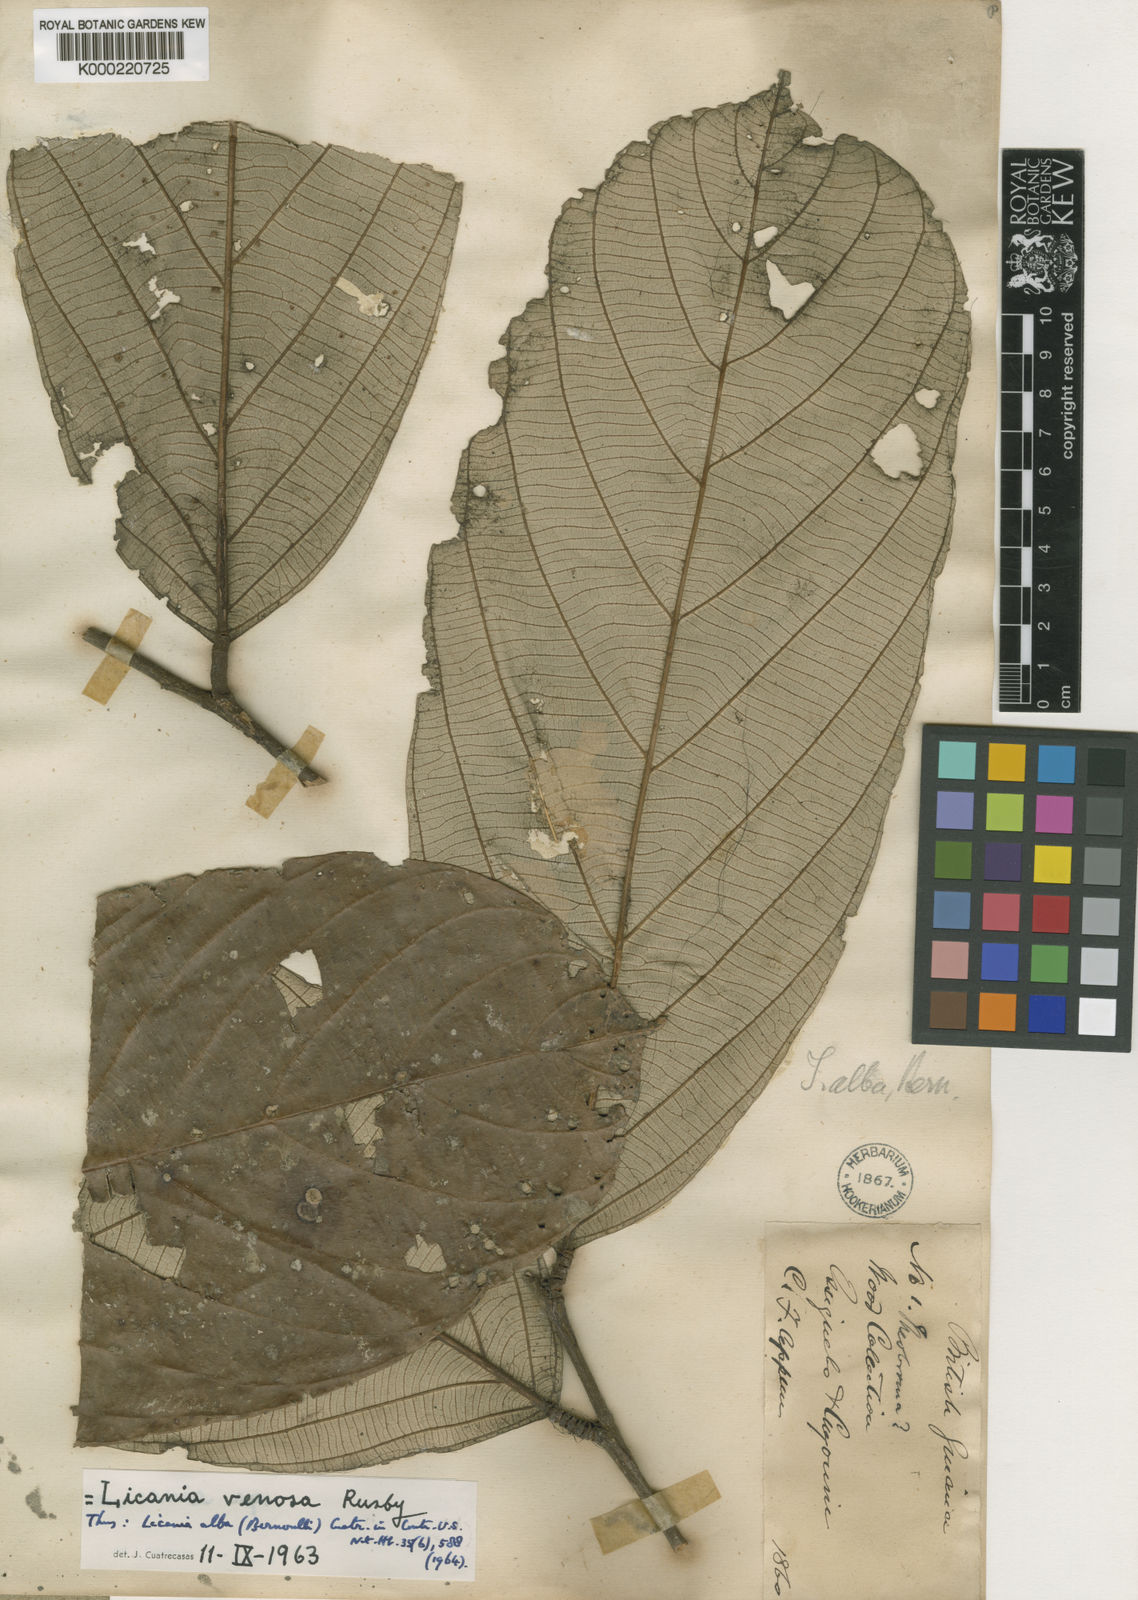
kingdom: Plantae
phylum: Tracheophyta
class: Magnoliopsida
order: Malpighiales
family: Chrysobalanaceae
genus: Licania
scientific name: Licania alba
